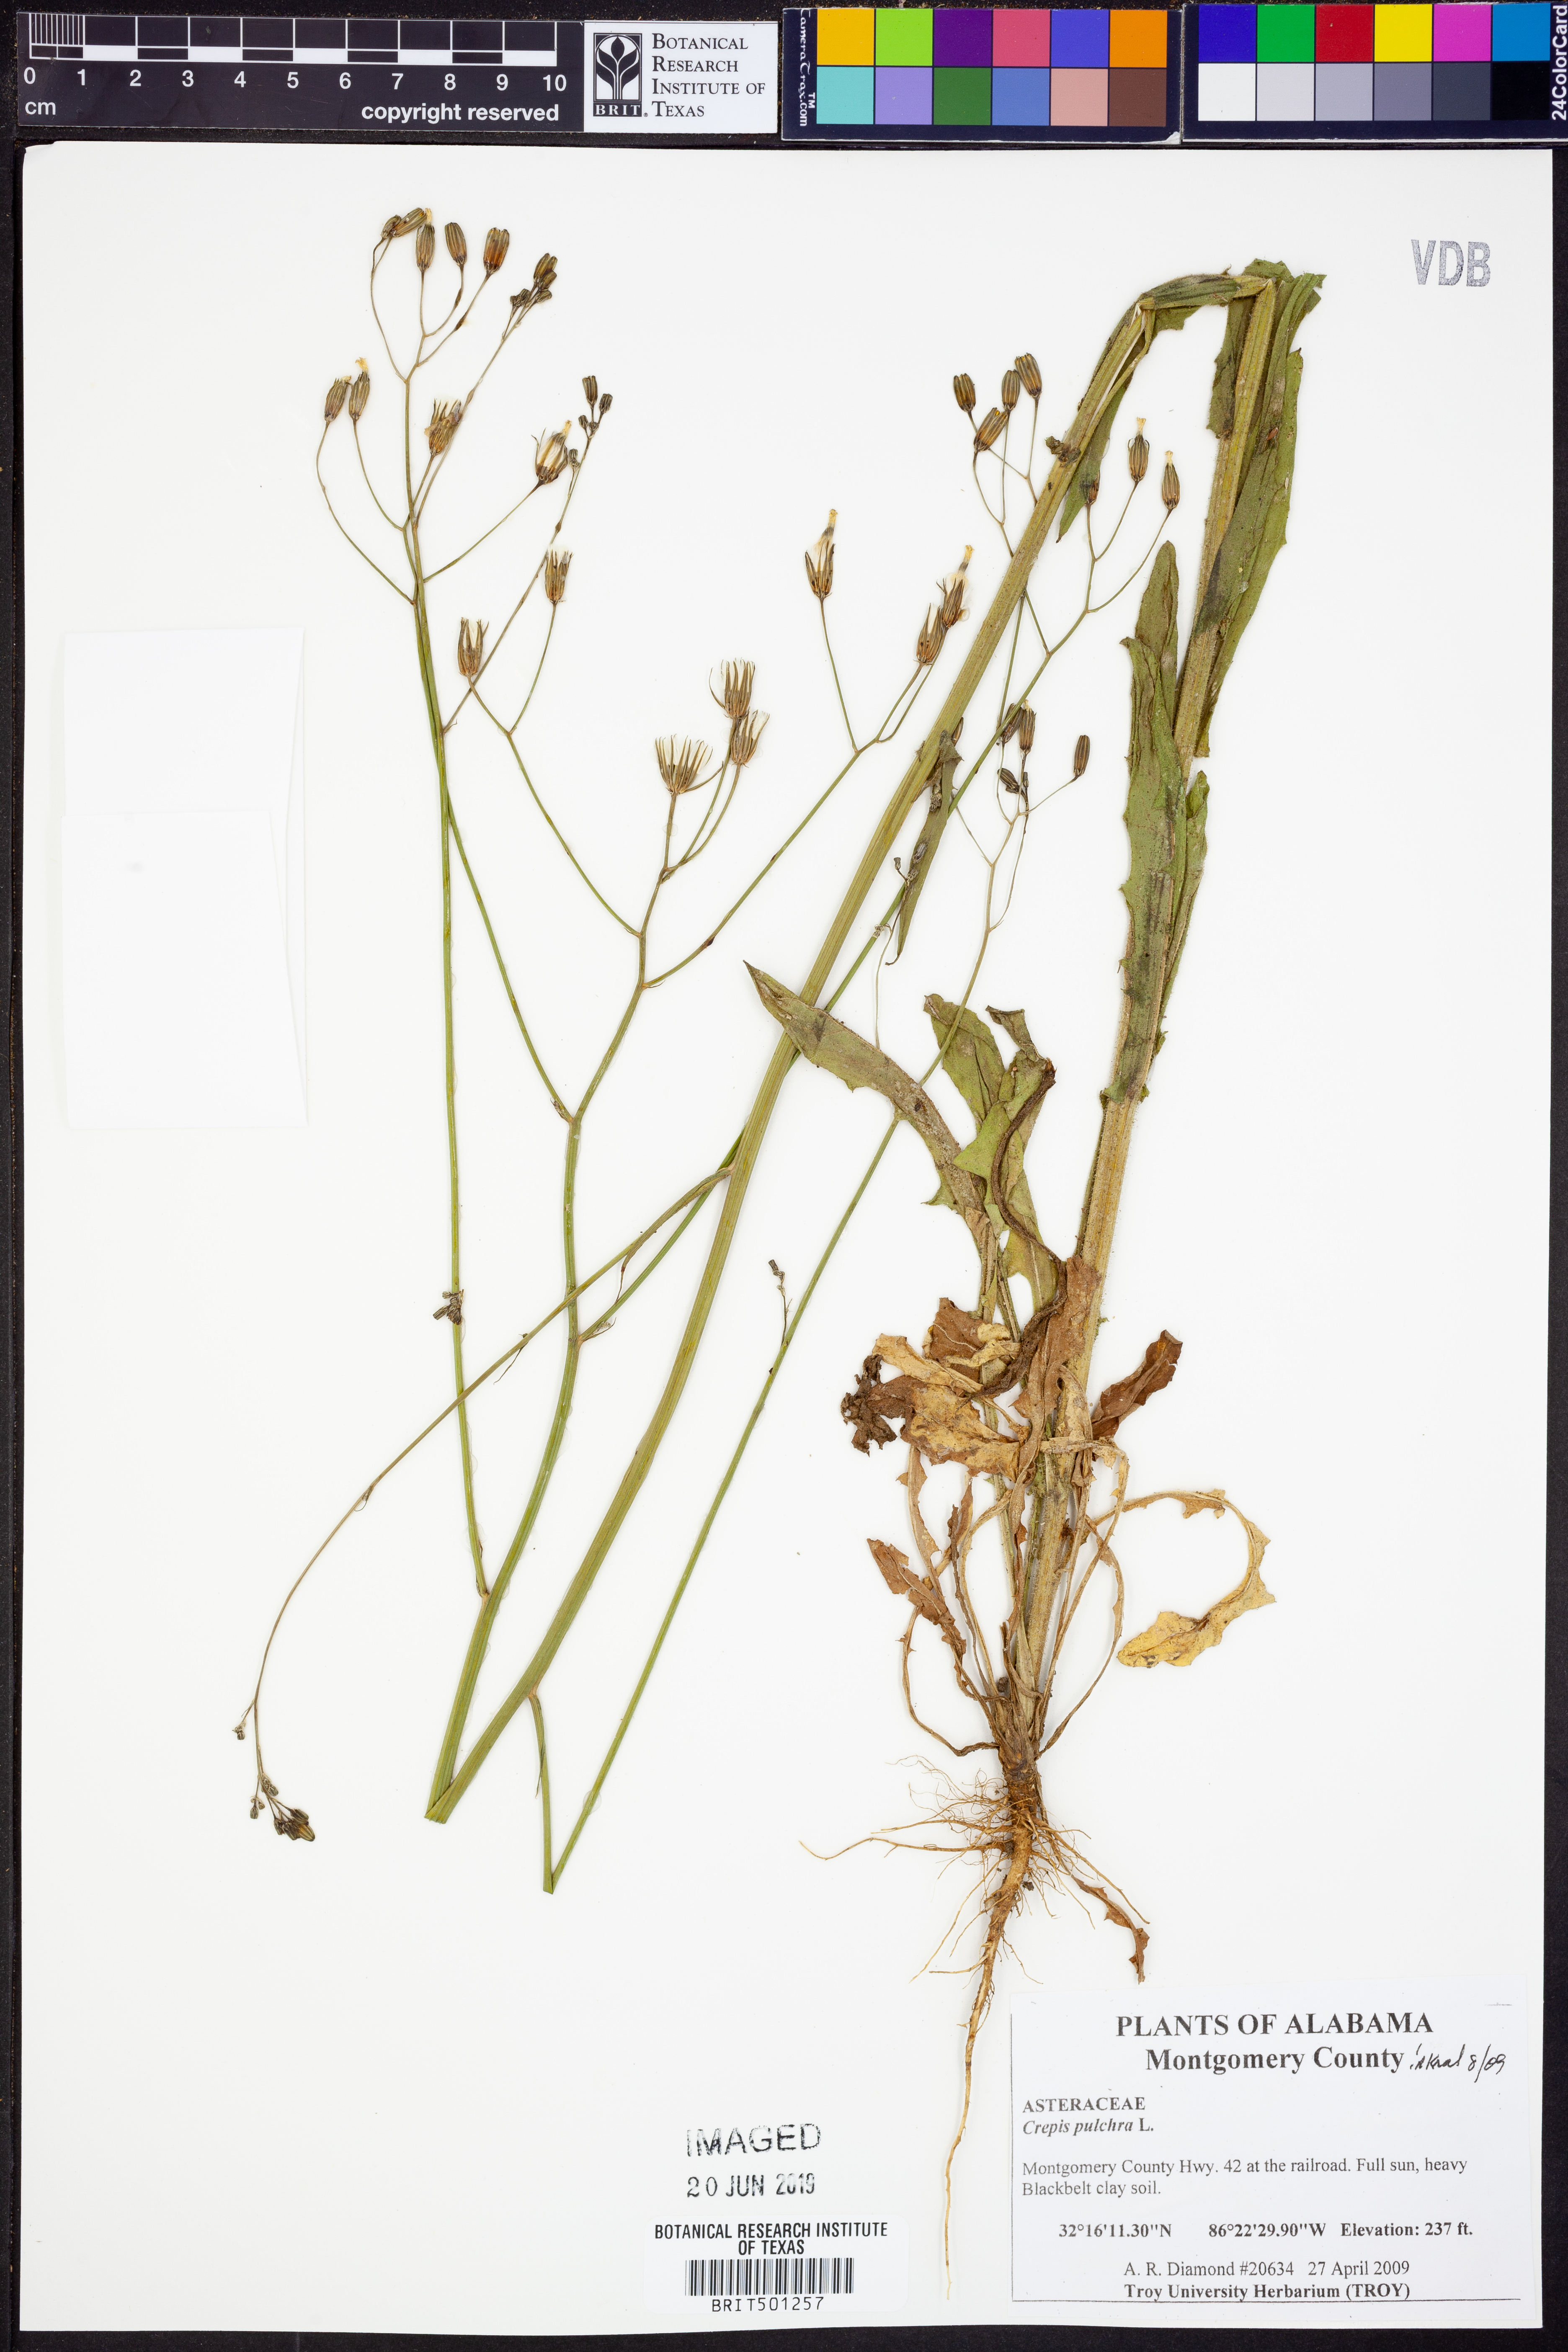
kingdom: Plantae
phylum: Tracheophyta
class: Magnoliopsida
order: Asterales
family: Asteraceae
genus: Crepis
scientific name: Crepis pulchra
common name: Hawk's-beard
